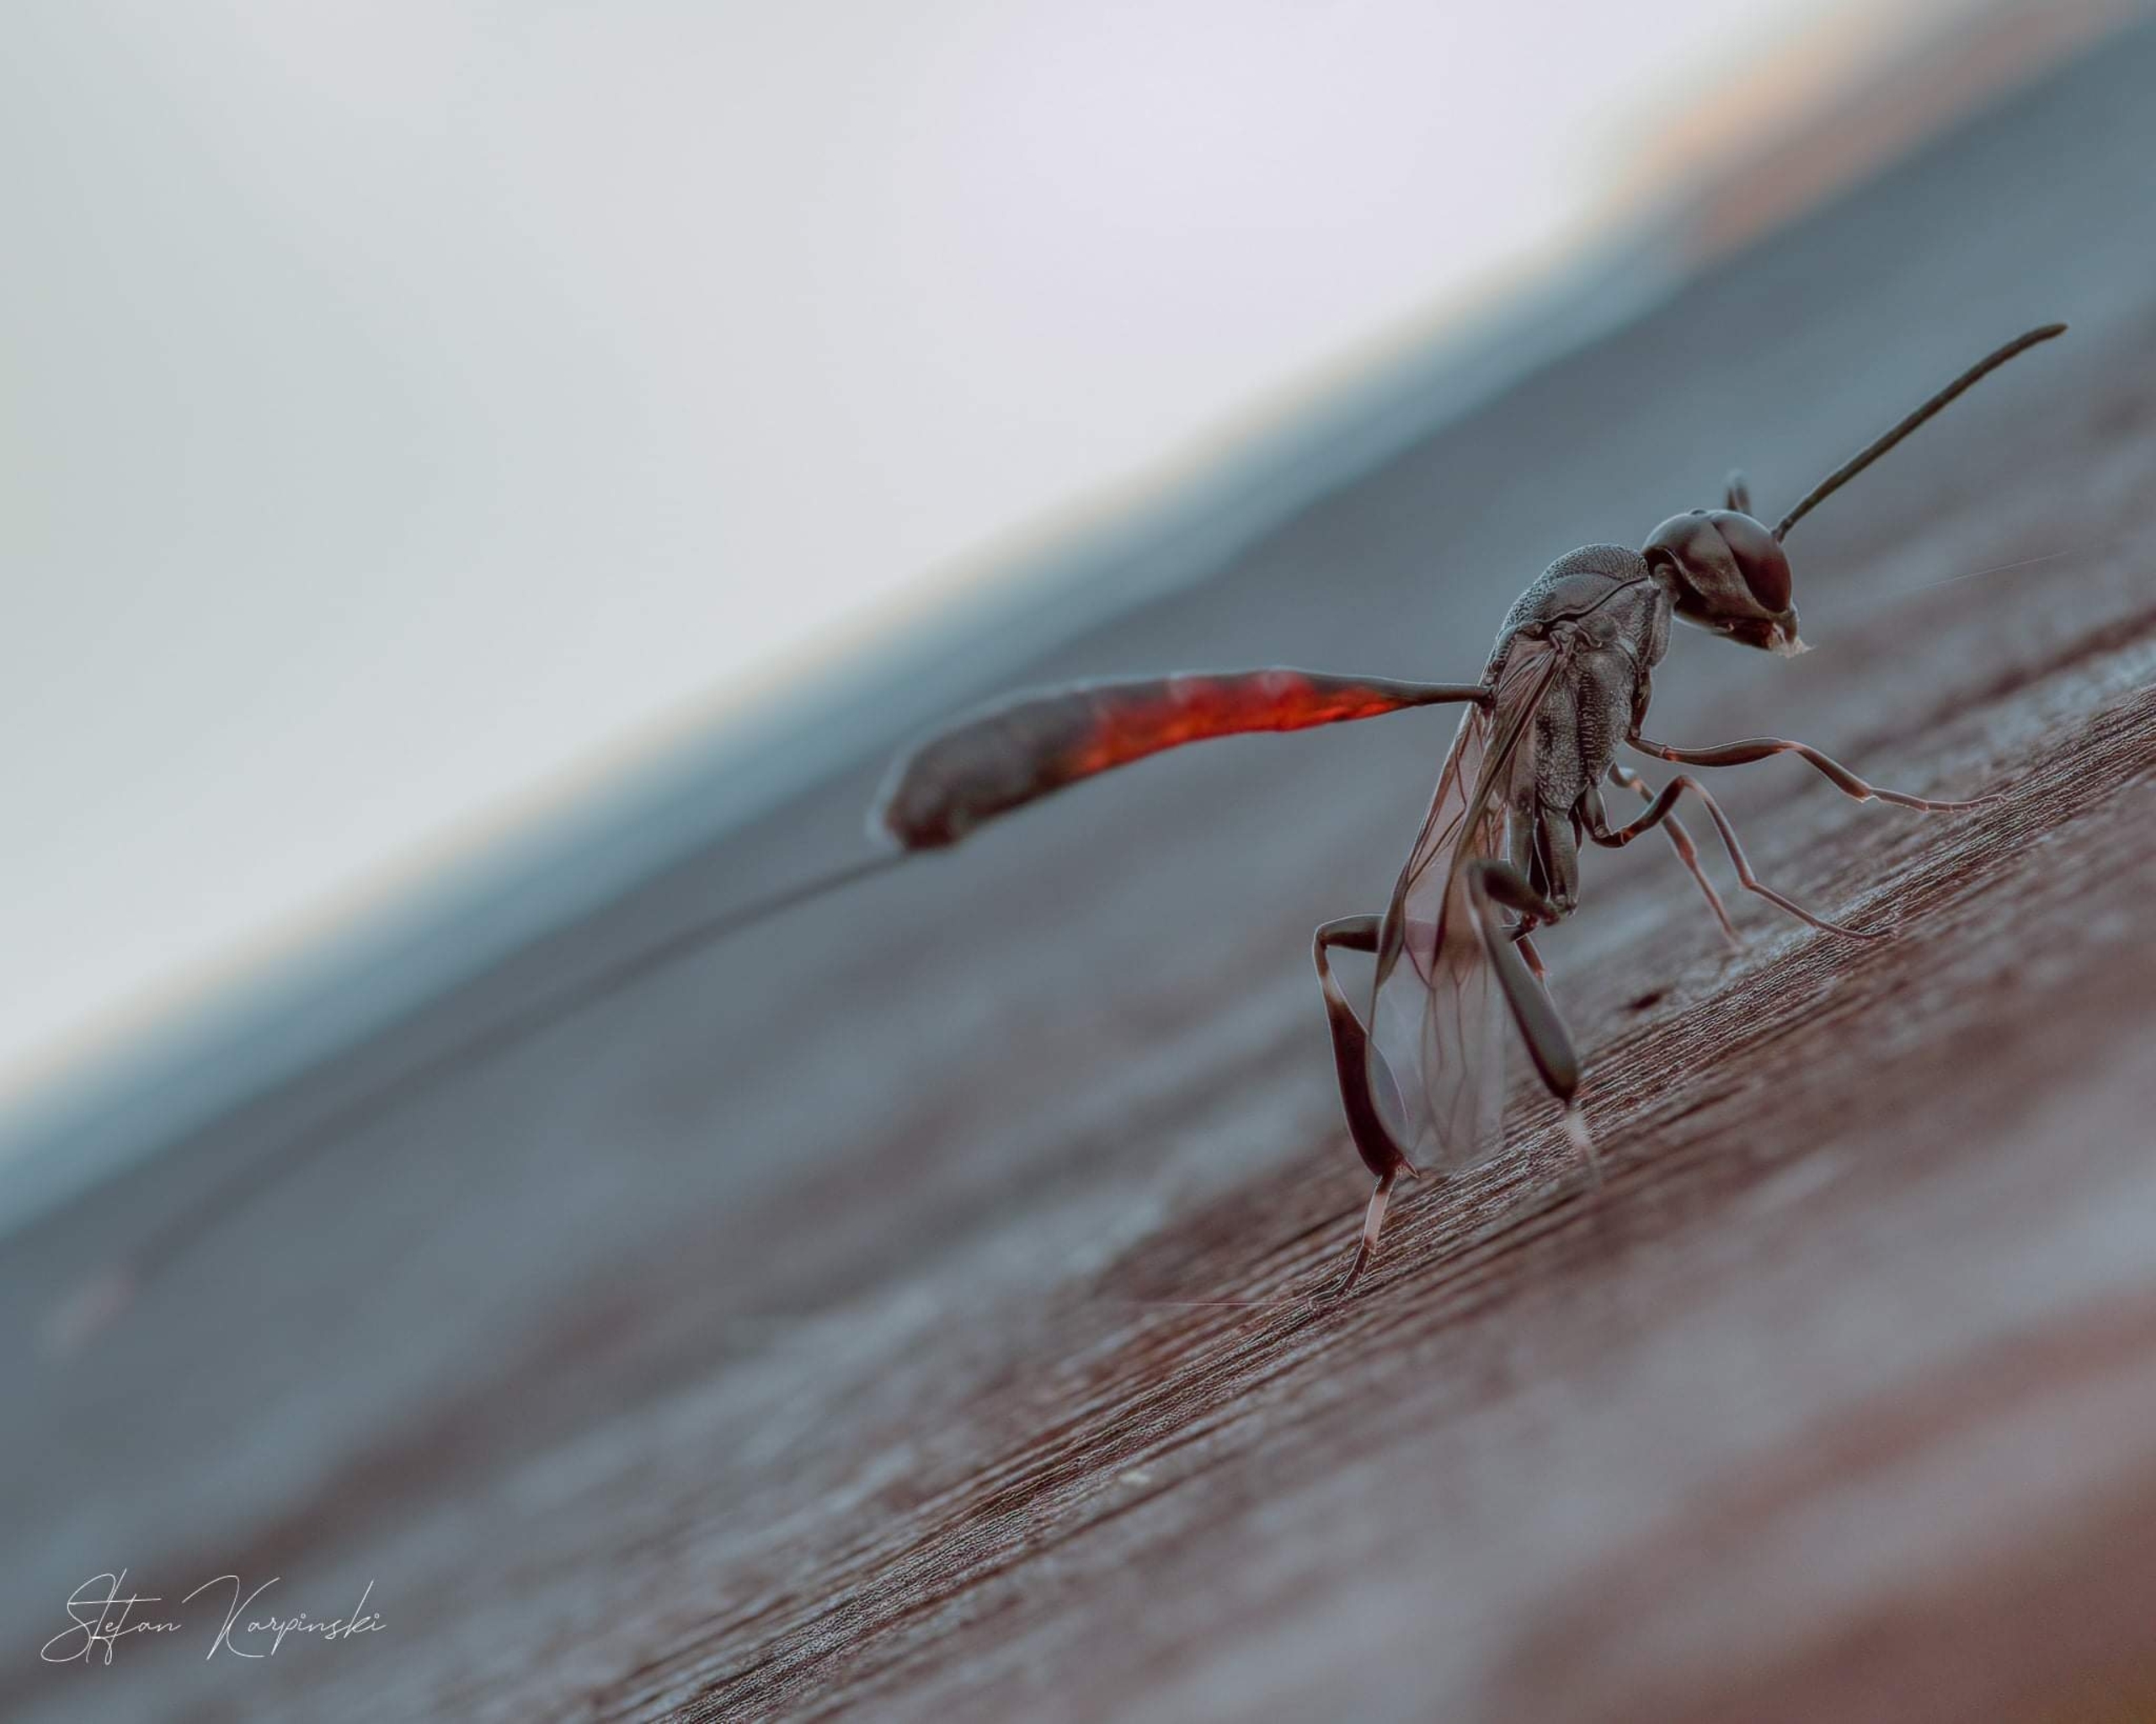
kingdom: Animalia
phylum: Arthropoda
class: Insecta
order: Hymenoptera
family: Gasteruptiidae
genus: Gasteruption
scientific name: Gasteruption
